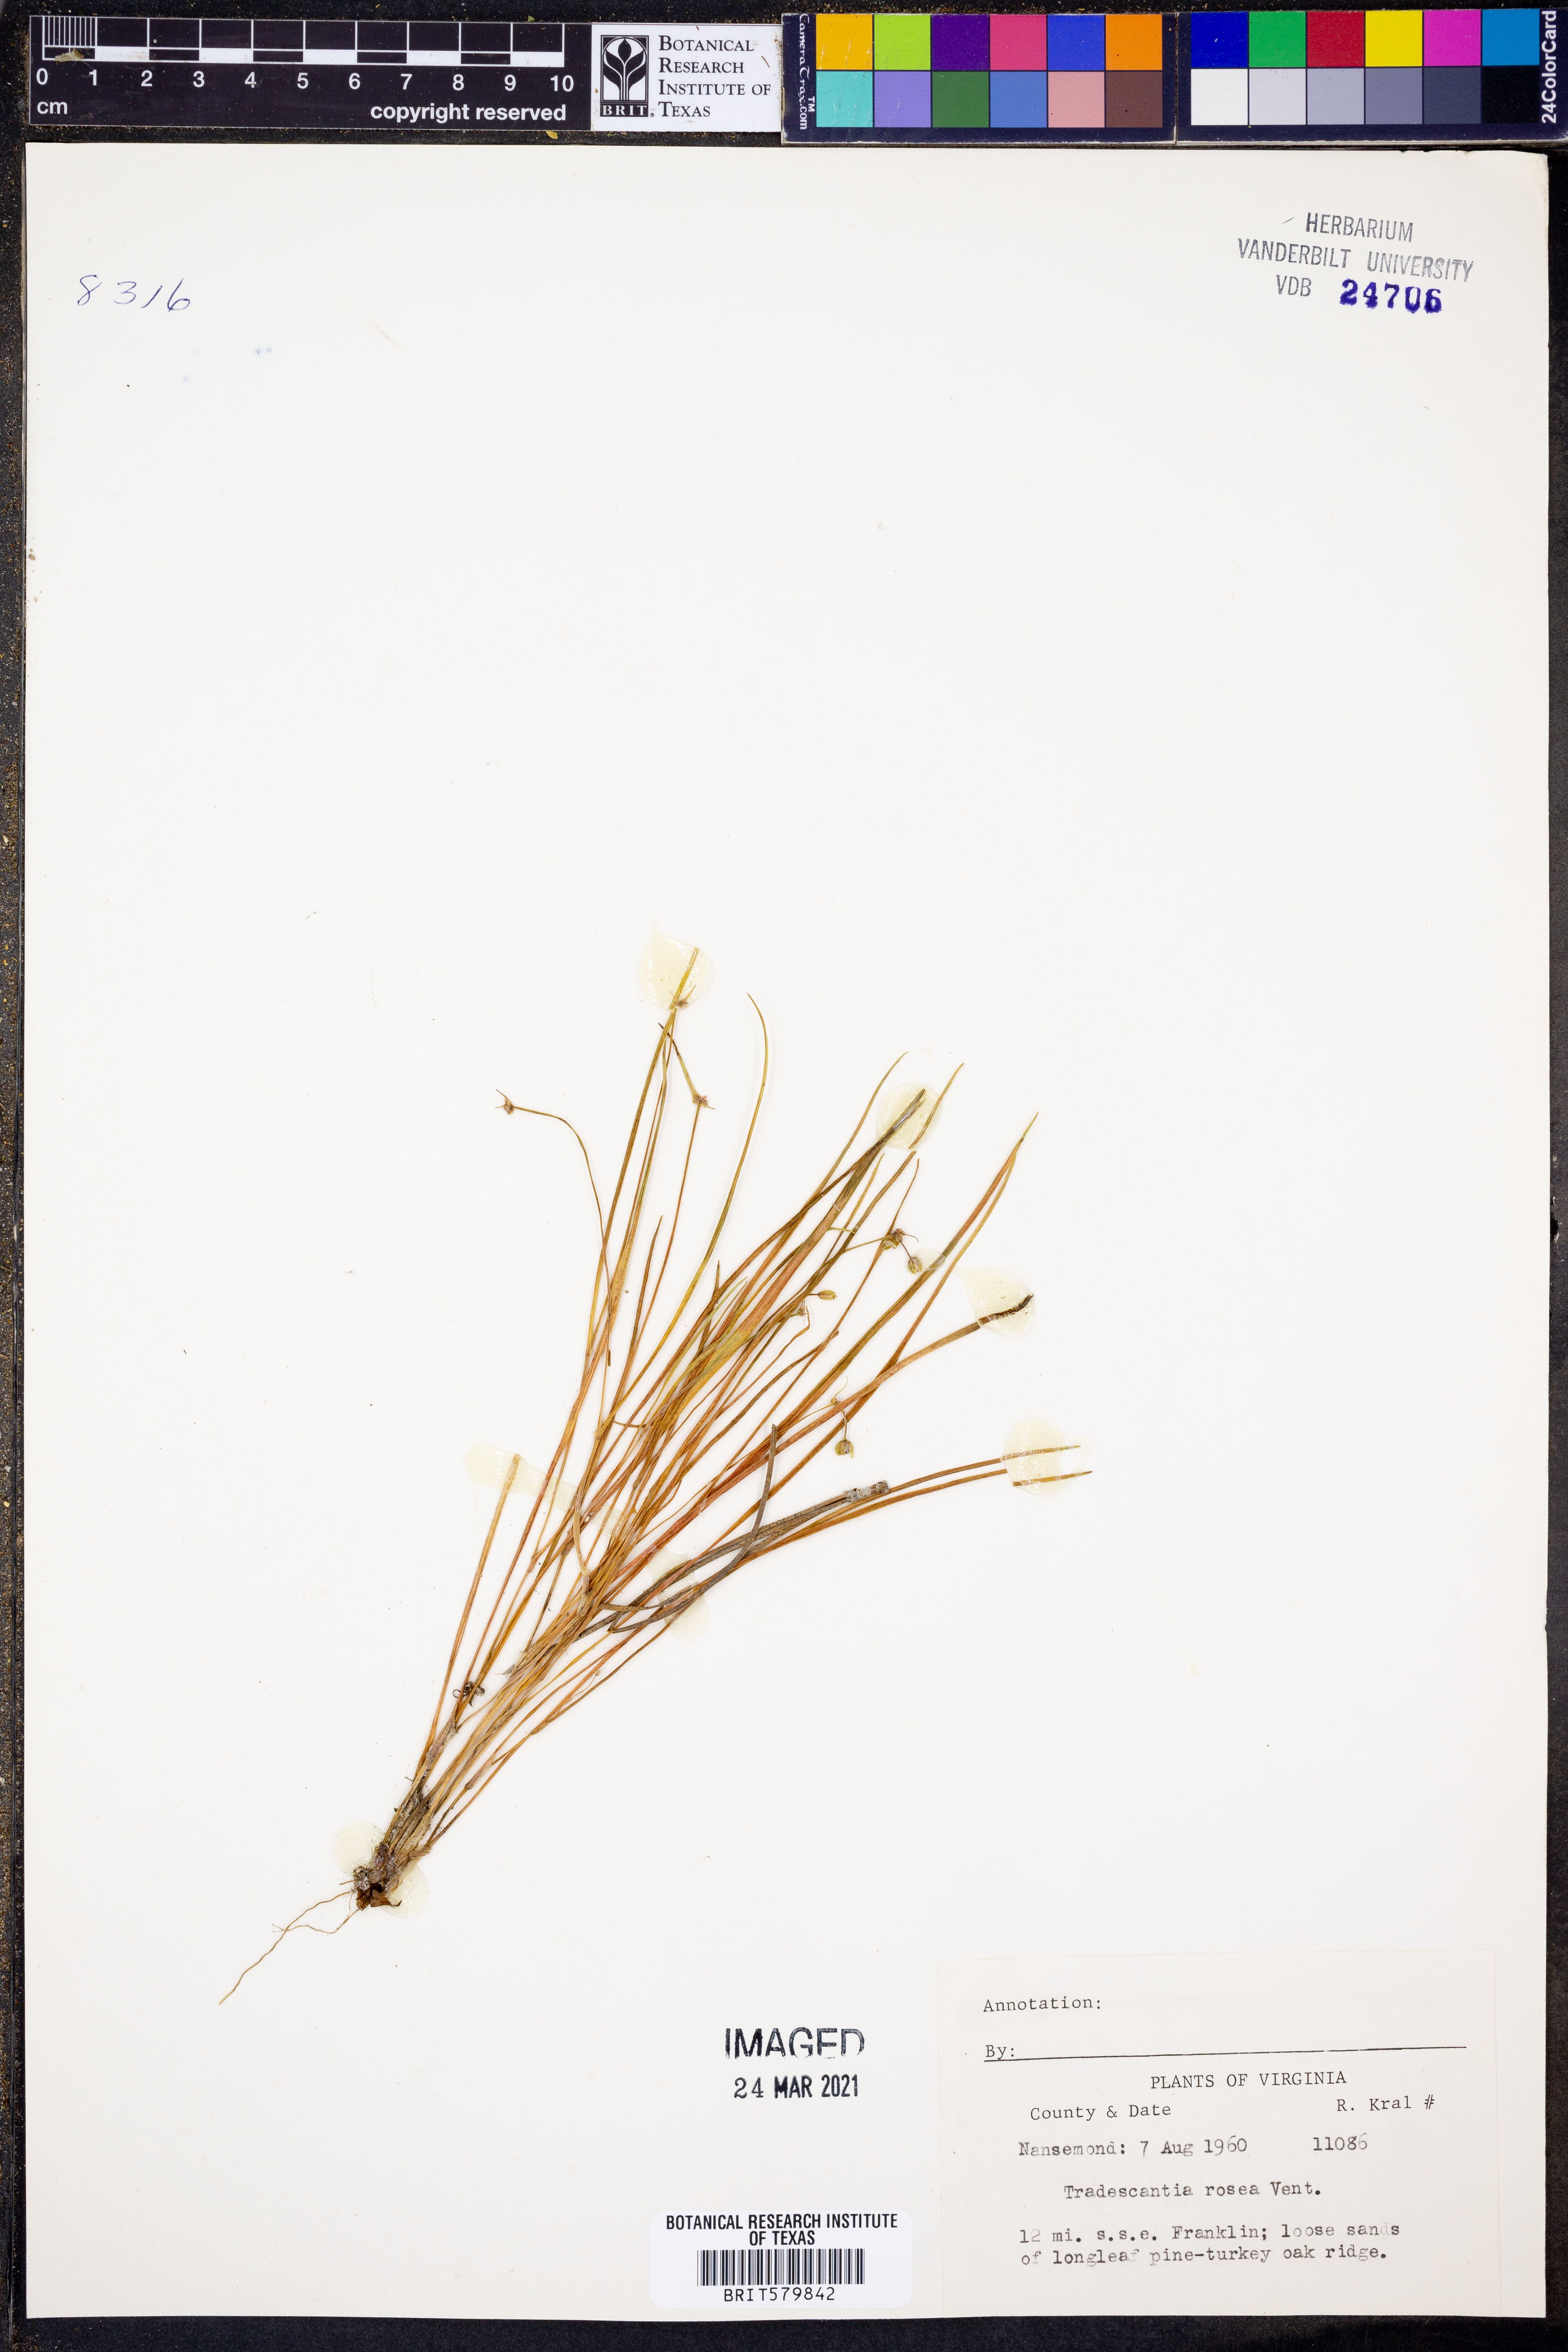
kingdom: Plantae
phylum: Tracheophyta
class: Liliopsida
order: Commelinales
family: Commelinaceae
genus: Callisia
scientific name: Callisia rosea
